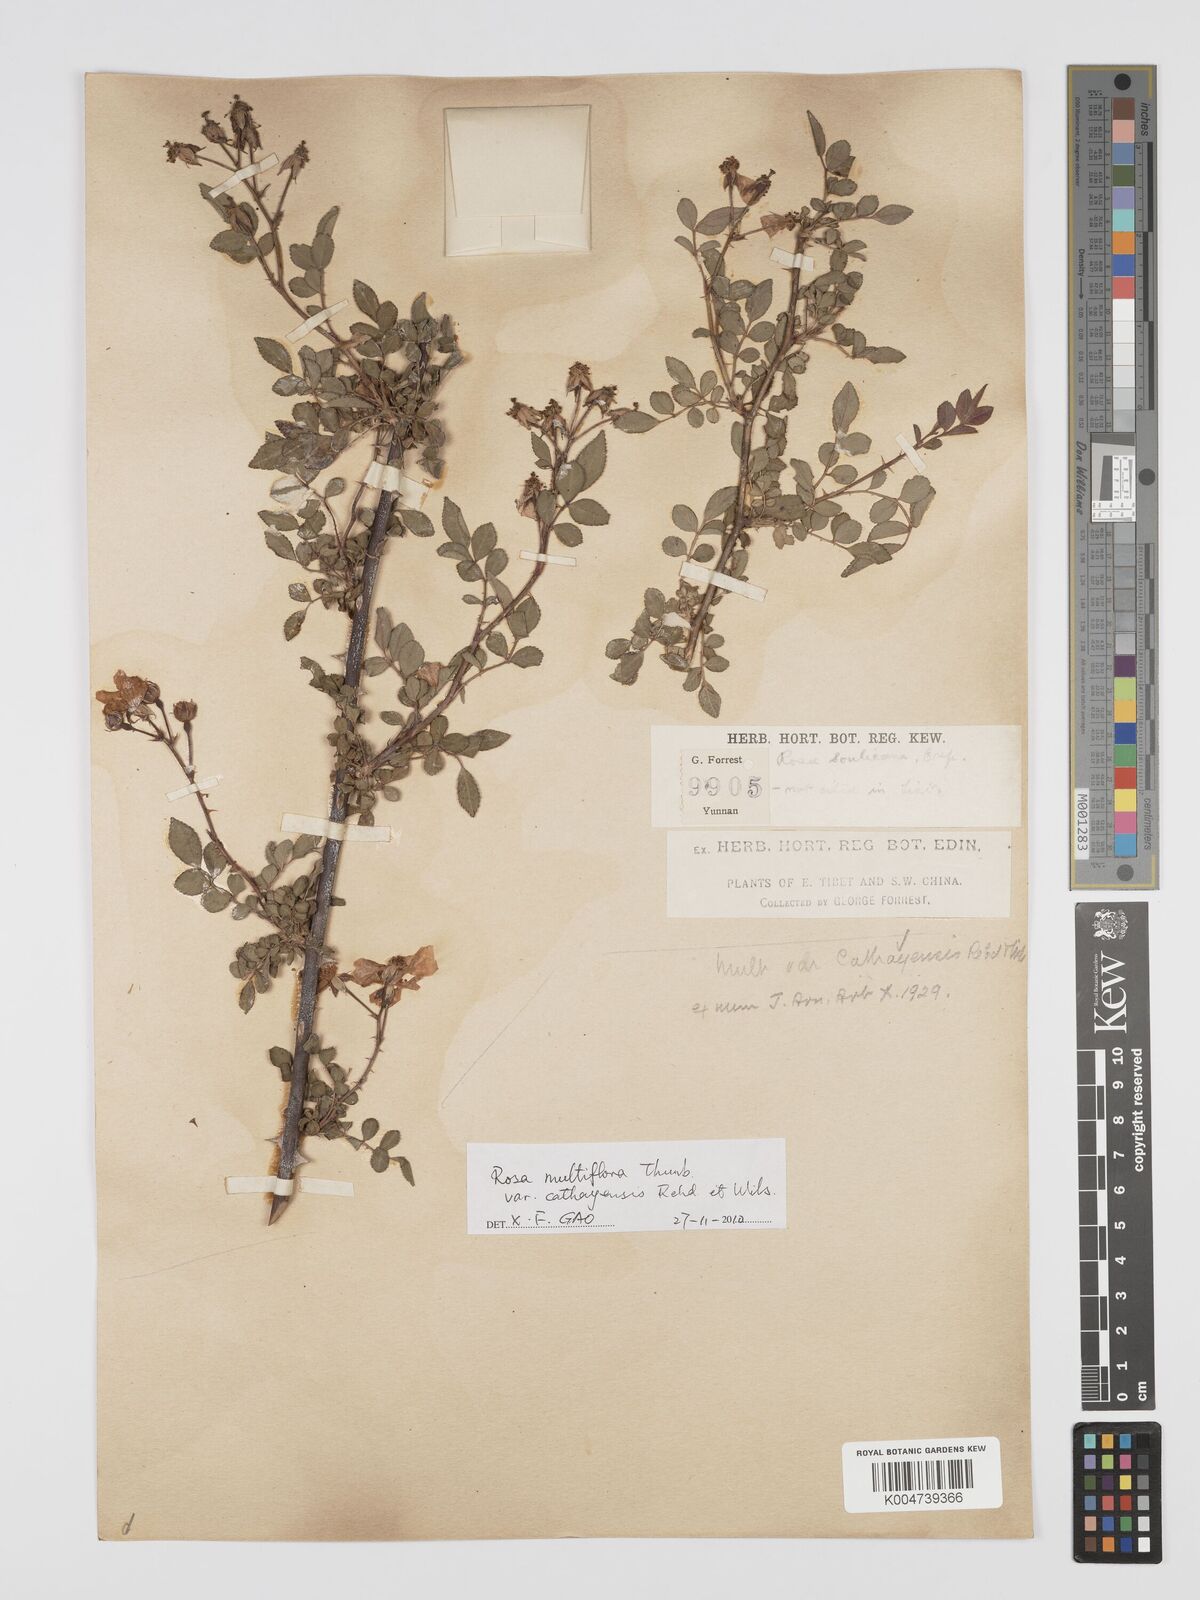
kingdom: Plantae
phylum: Tracheophyta
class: Magnoliopsida
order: Rosales
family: Rosaceae
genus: Rosa
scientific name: Rosa
